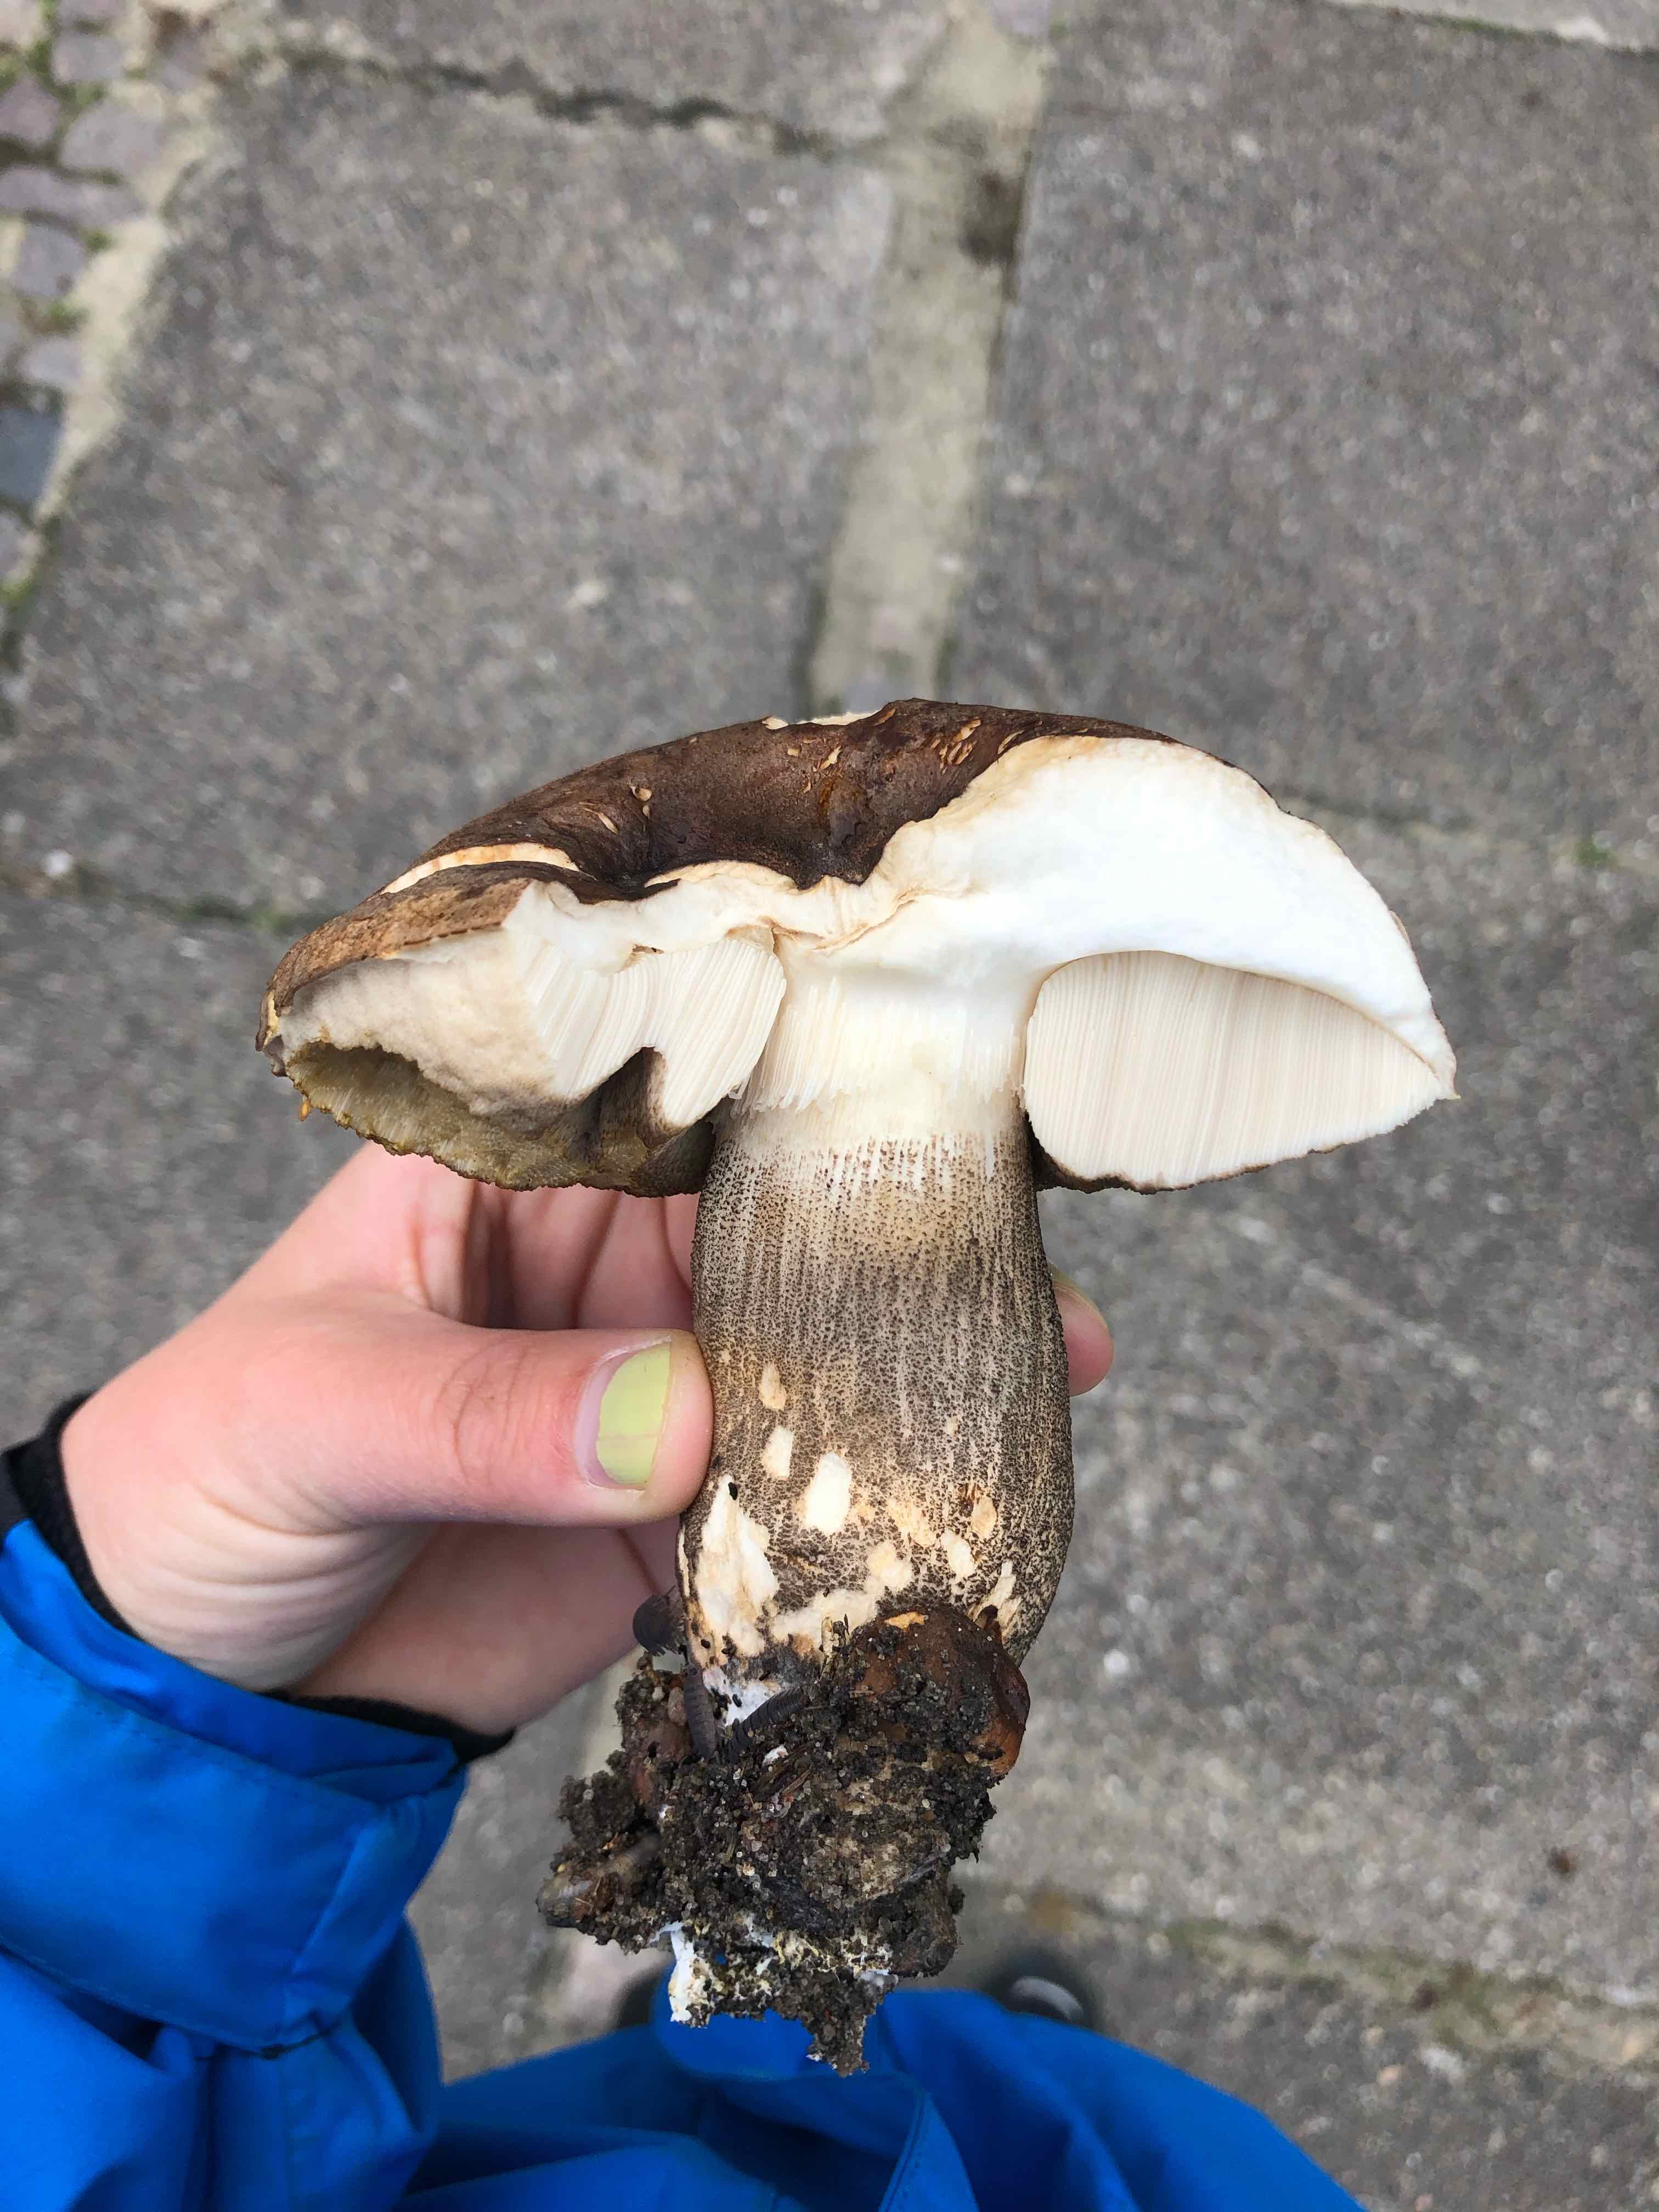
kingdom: Fungi
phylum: Basidiomycota
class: Agaricomycetes
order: Boletales
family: Boletaceae
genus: Leccinum
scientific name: Leccinum melaneum
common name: mørk skælrørhat
